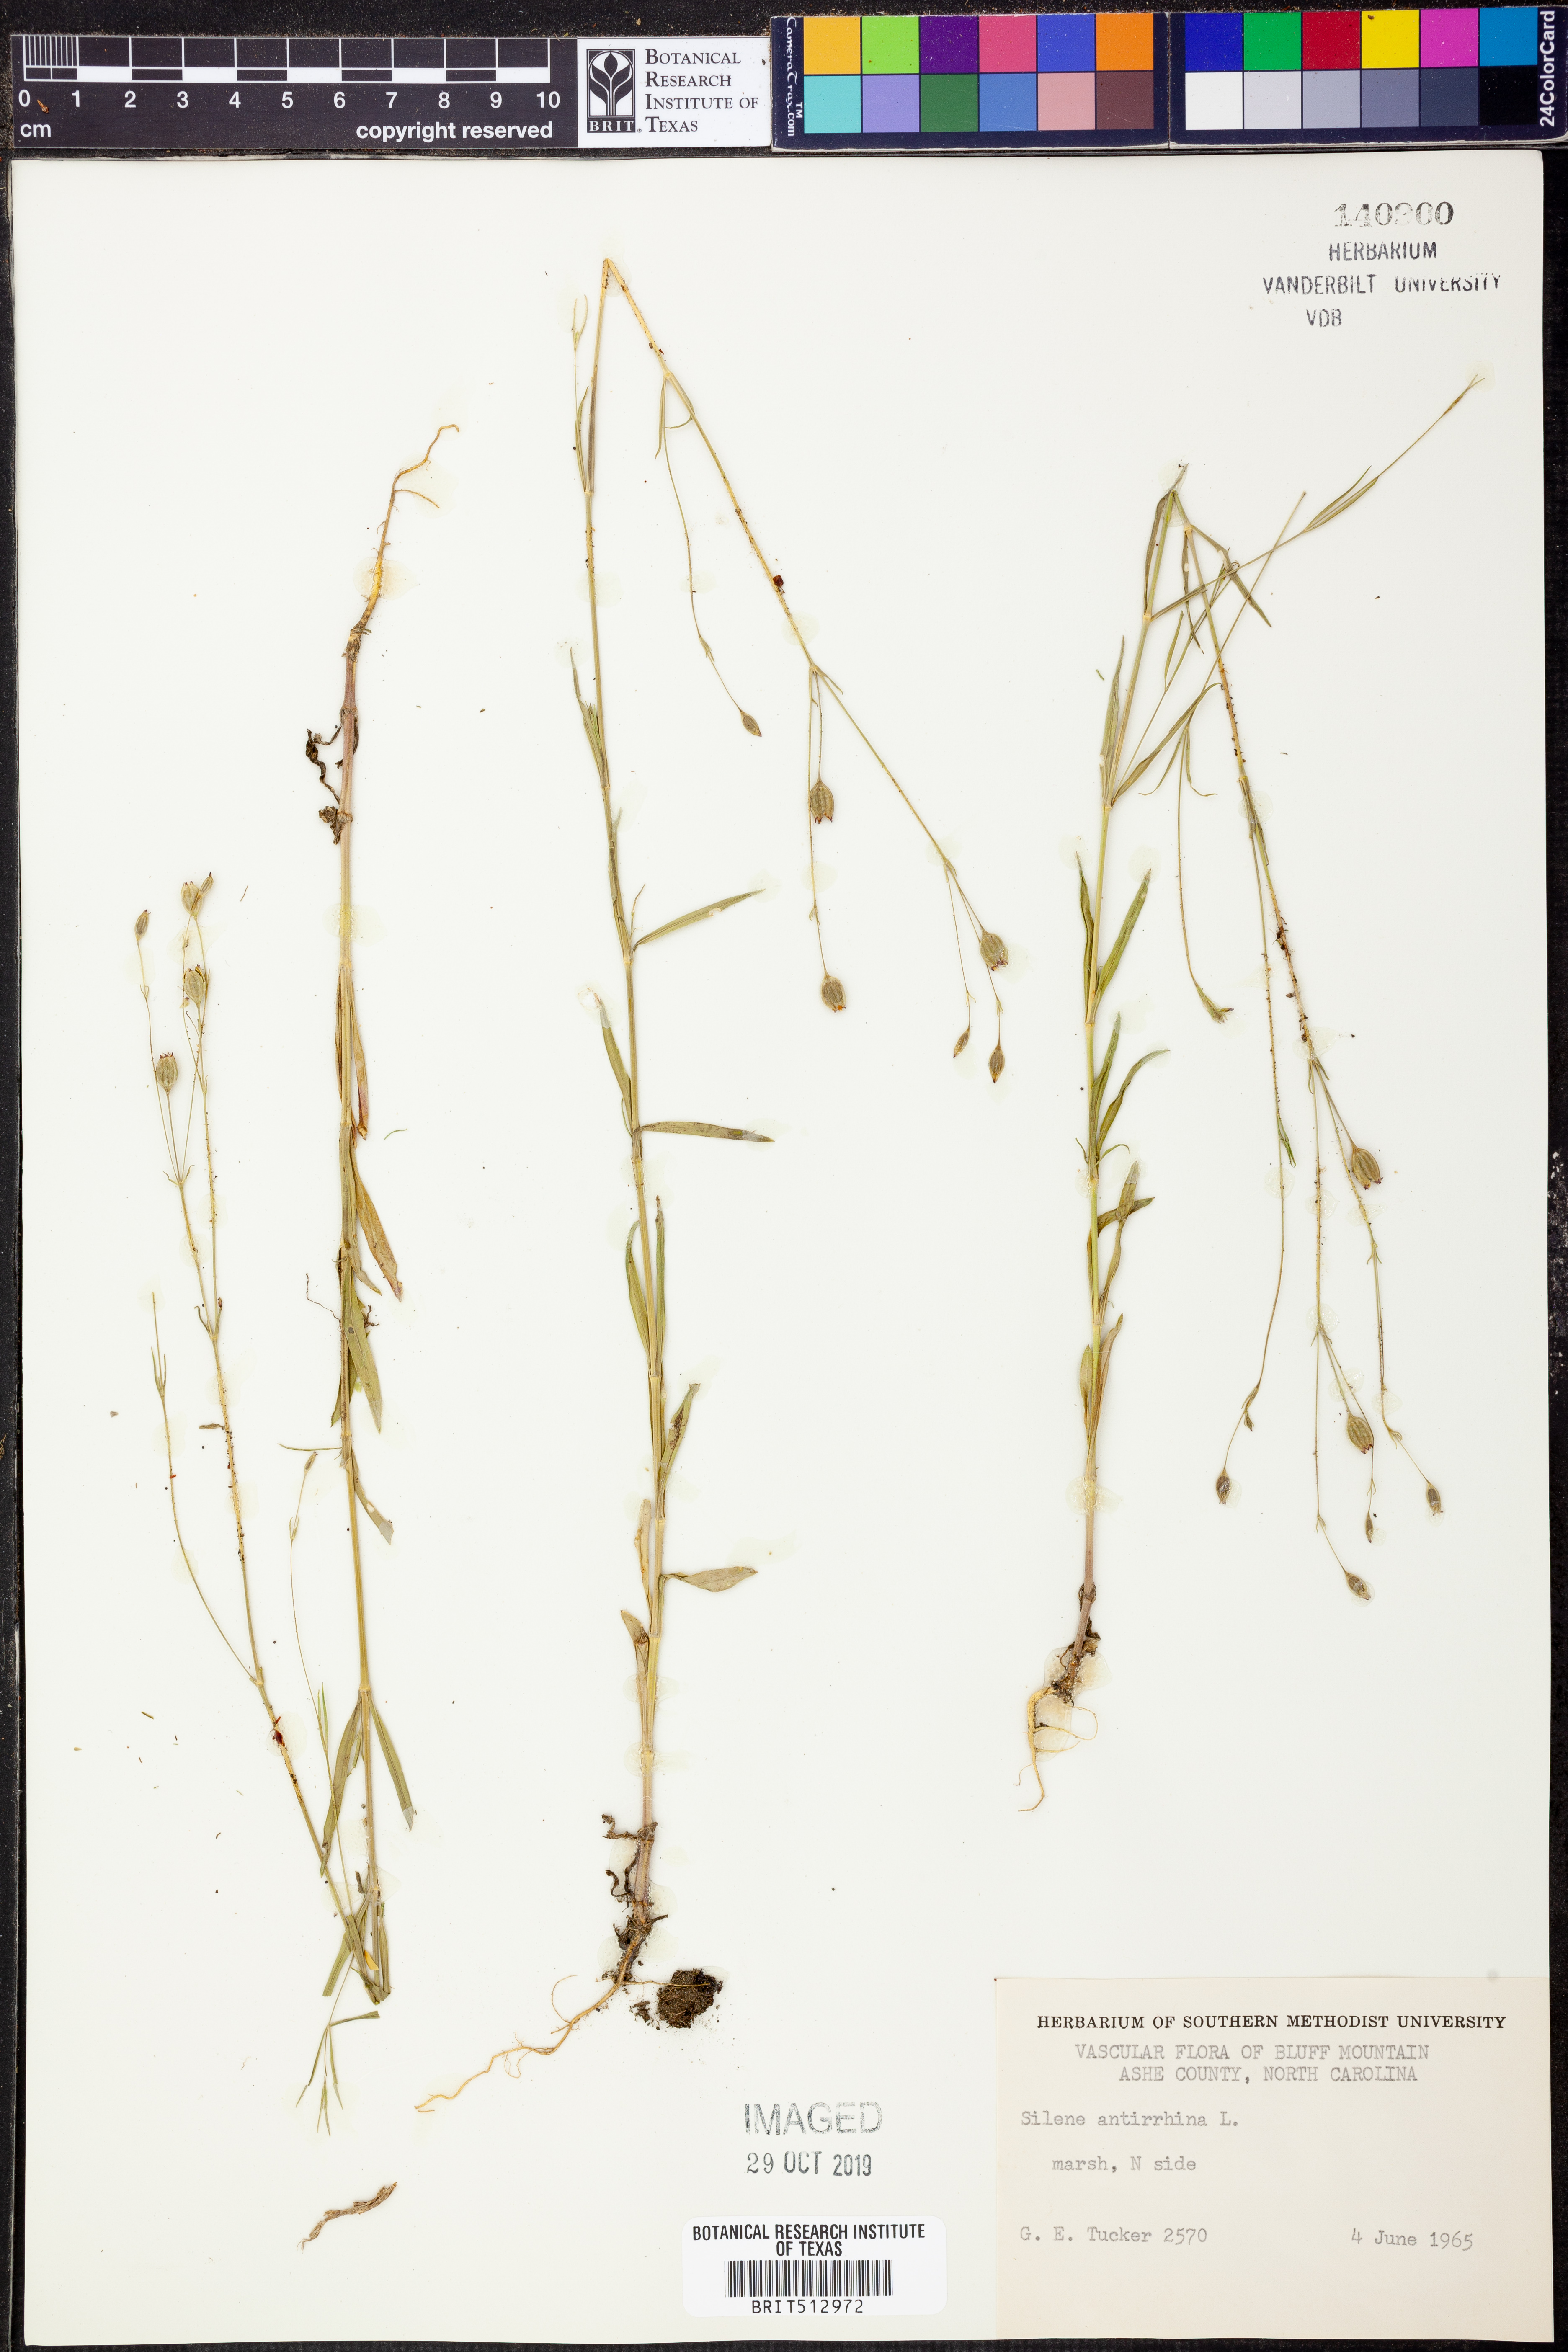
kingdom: Plantae
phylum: Tracheophyta
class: Magnoliopsida
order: Caryophyllales
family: Caryophyllaceae
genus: Silene
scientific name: Silene antirrhina
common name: Sleepy catchfly
